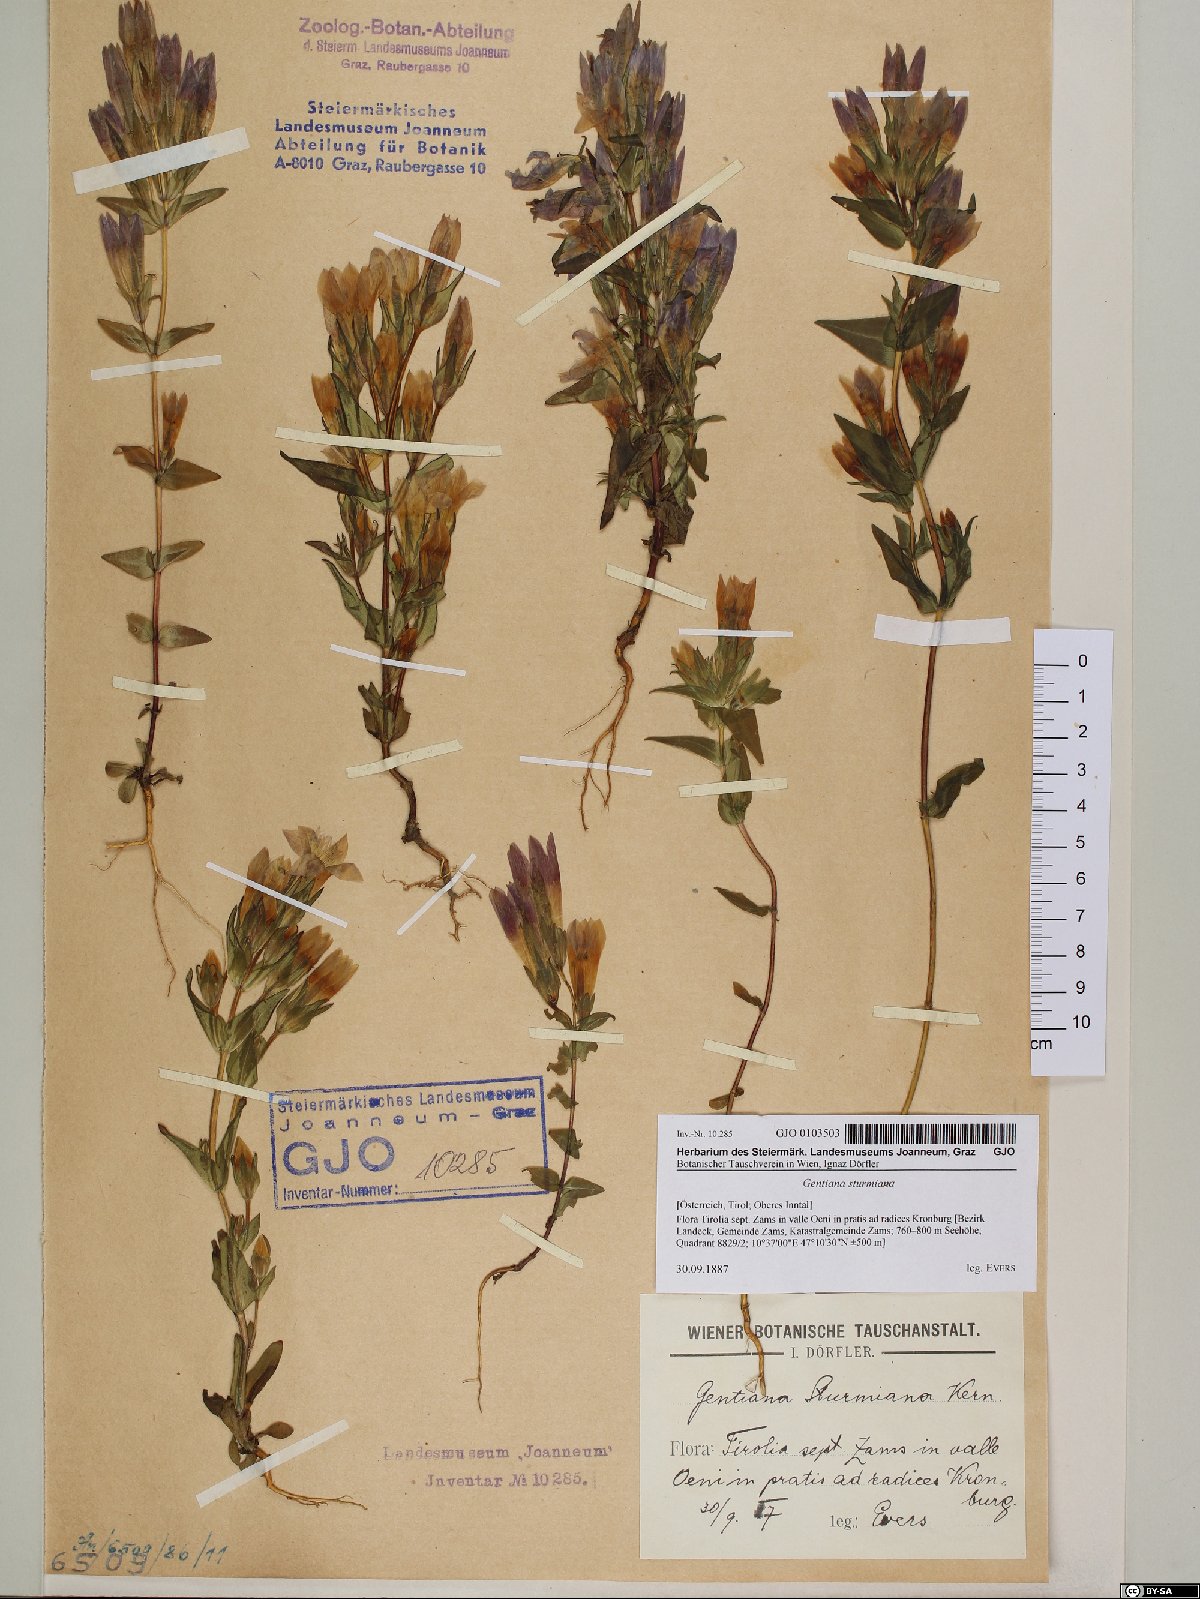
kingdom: Plantae
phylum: Tracheophyta
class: Magnoliopsida
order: Gentianales
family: Gentianaceae
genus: Gentianella
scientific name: Gentianella obtusifolia
